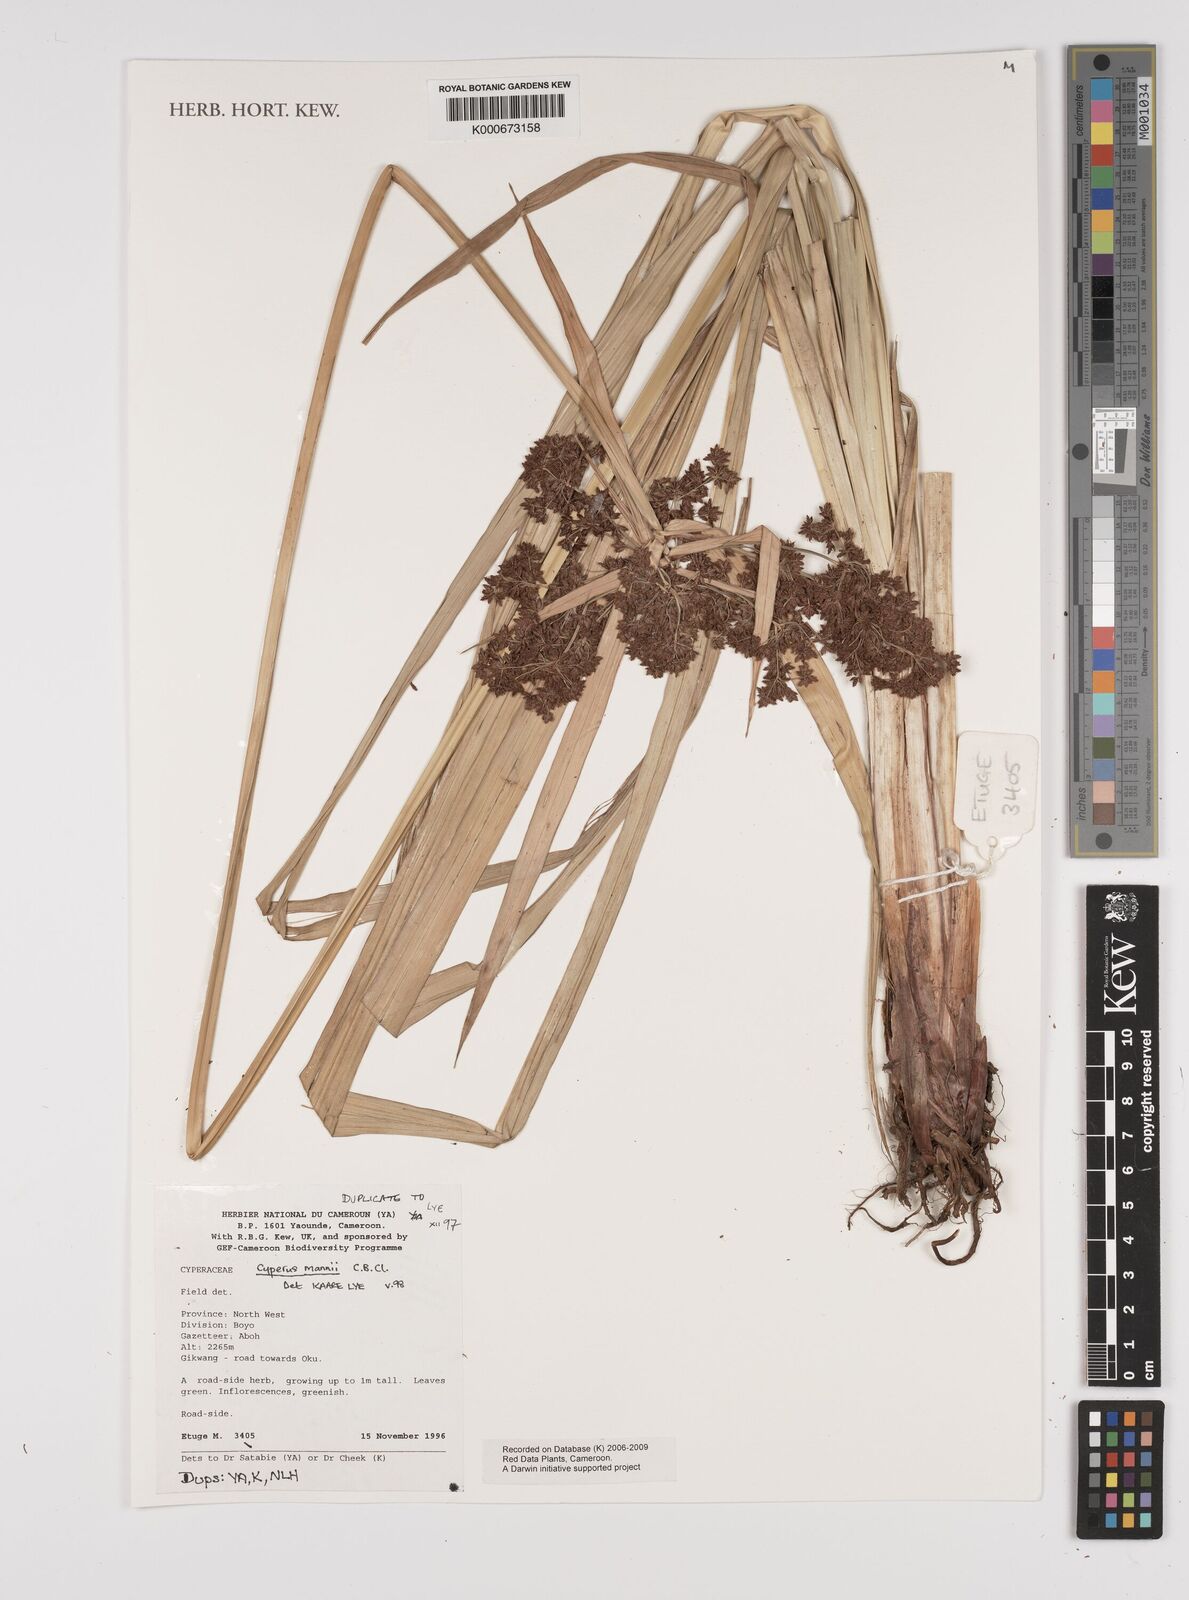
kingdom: Plantae
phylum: Tracheophyta
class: Liliopsida
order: Poales
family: Cyperaceae
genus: Cyperus
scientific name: Cyperus baronii
